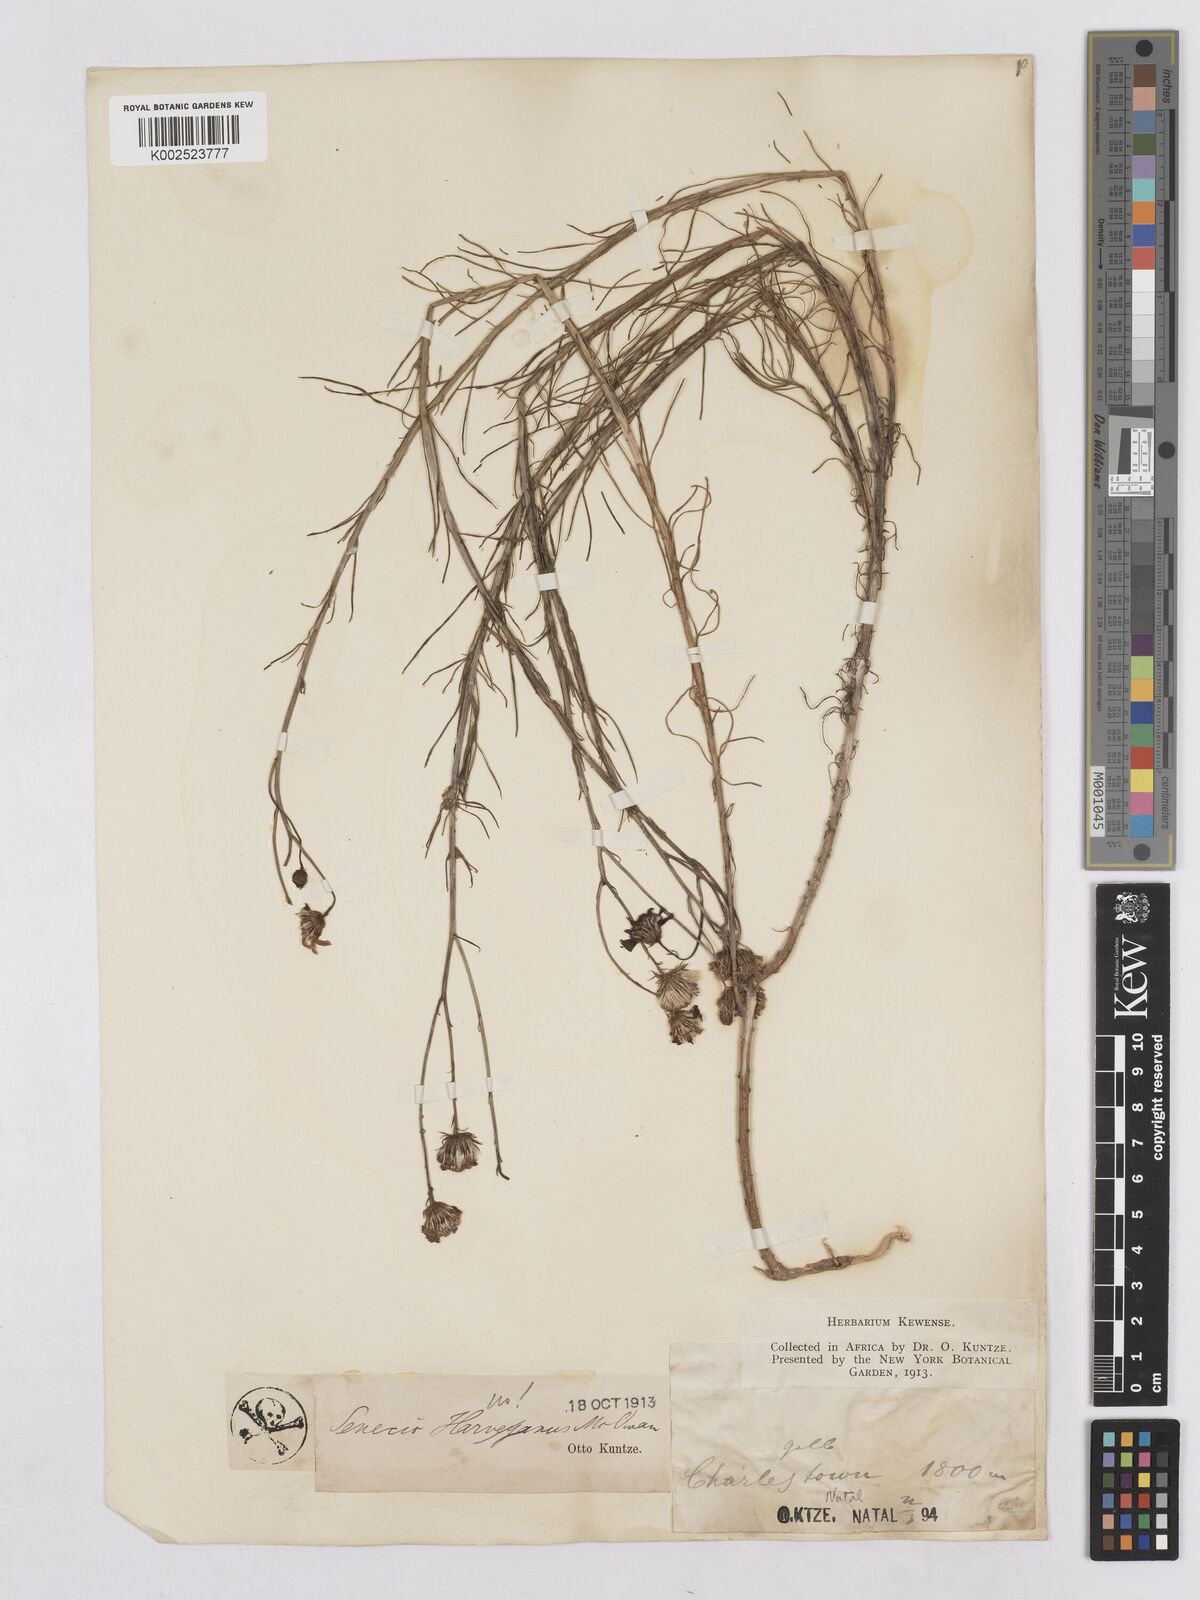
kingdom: Plantae
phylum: Tracheophyta
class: Magnoliopsida
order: Asterales
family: Asteraceae
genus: Senecio
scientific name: Senecio harveyanus
